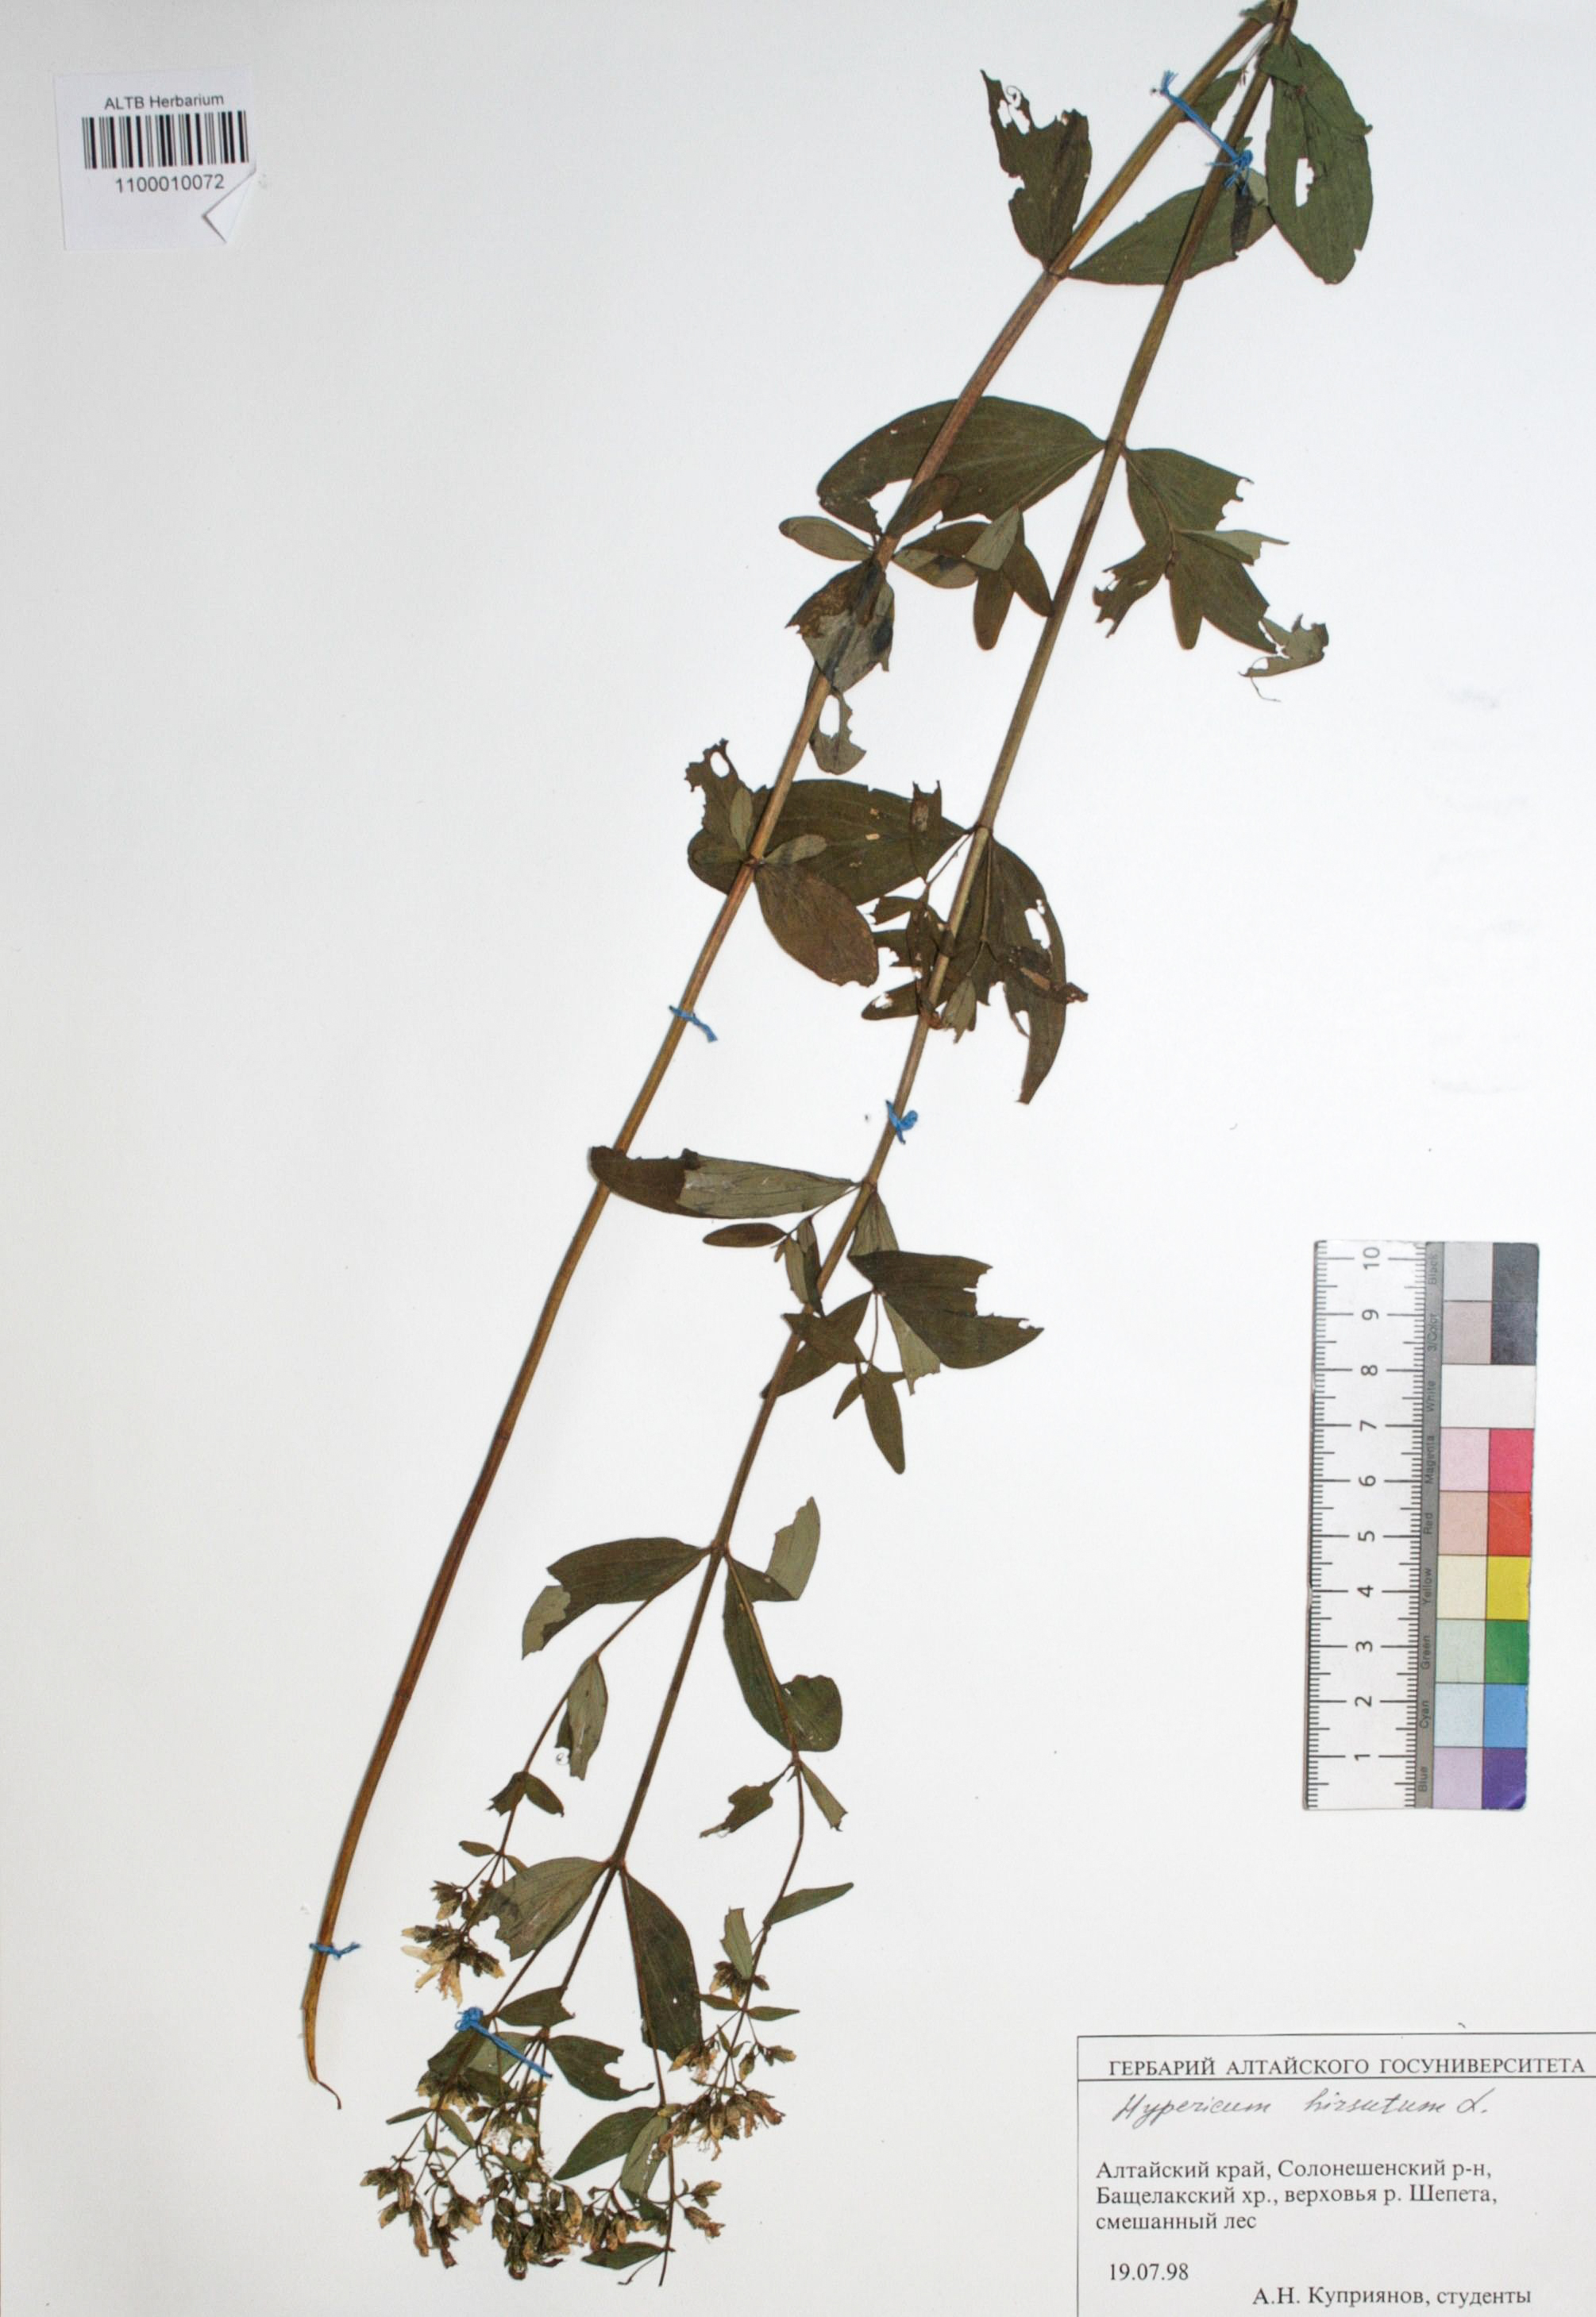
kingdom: Plantae
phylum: Tracheophyta
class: Magnoliopsida
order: Malpighiales
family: Hypericaceae
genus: Hypericum
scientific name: Hypericum hirsutum
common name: Hairy st. john's-wort
